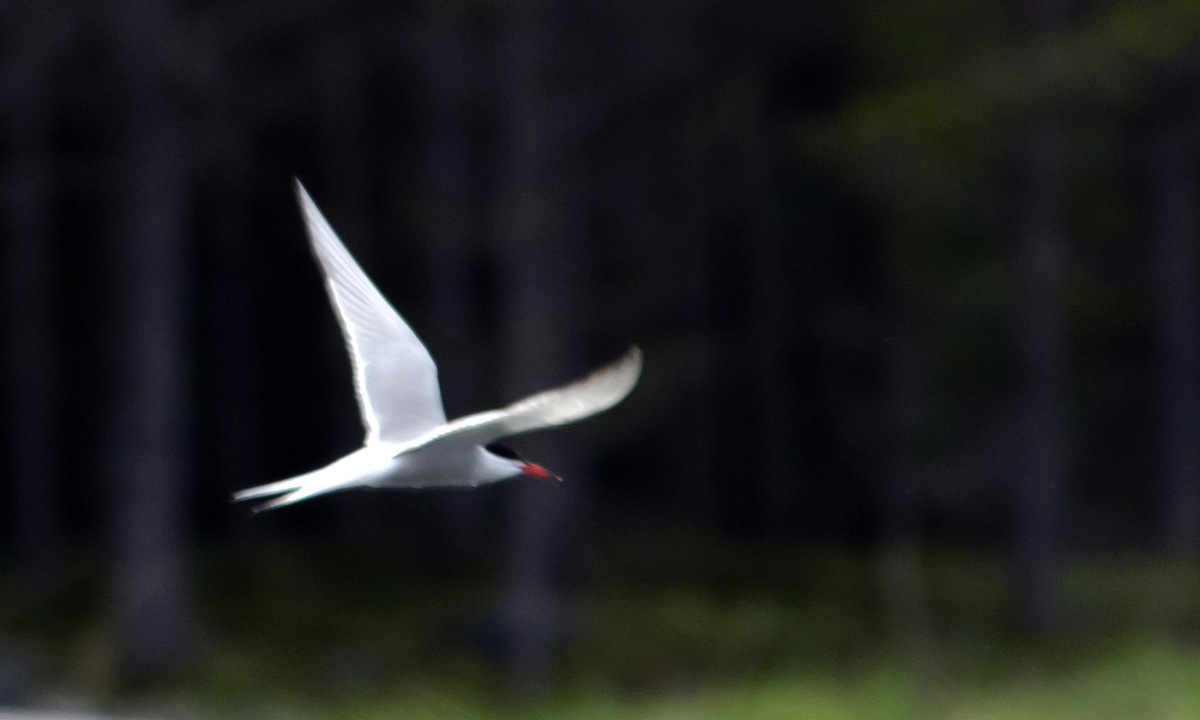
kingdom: Animalia
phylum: Chordata
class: Aves
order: Charadriiformes
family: Laridae
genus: Sterna
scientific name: Sterna hirundo
